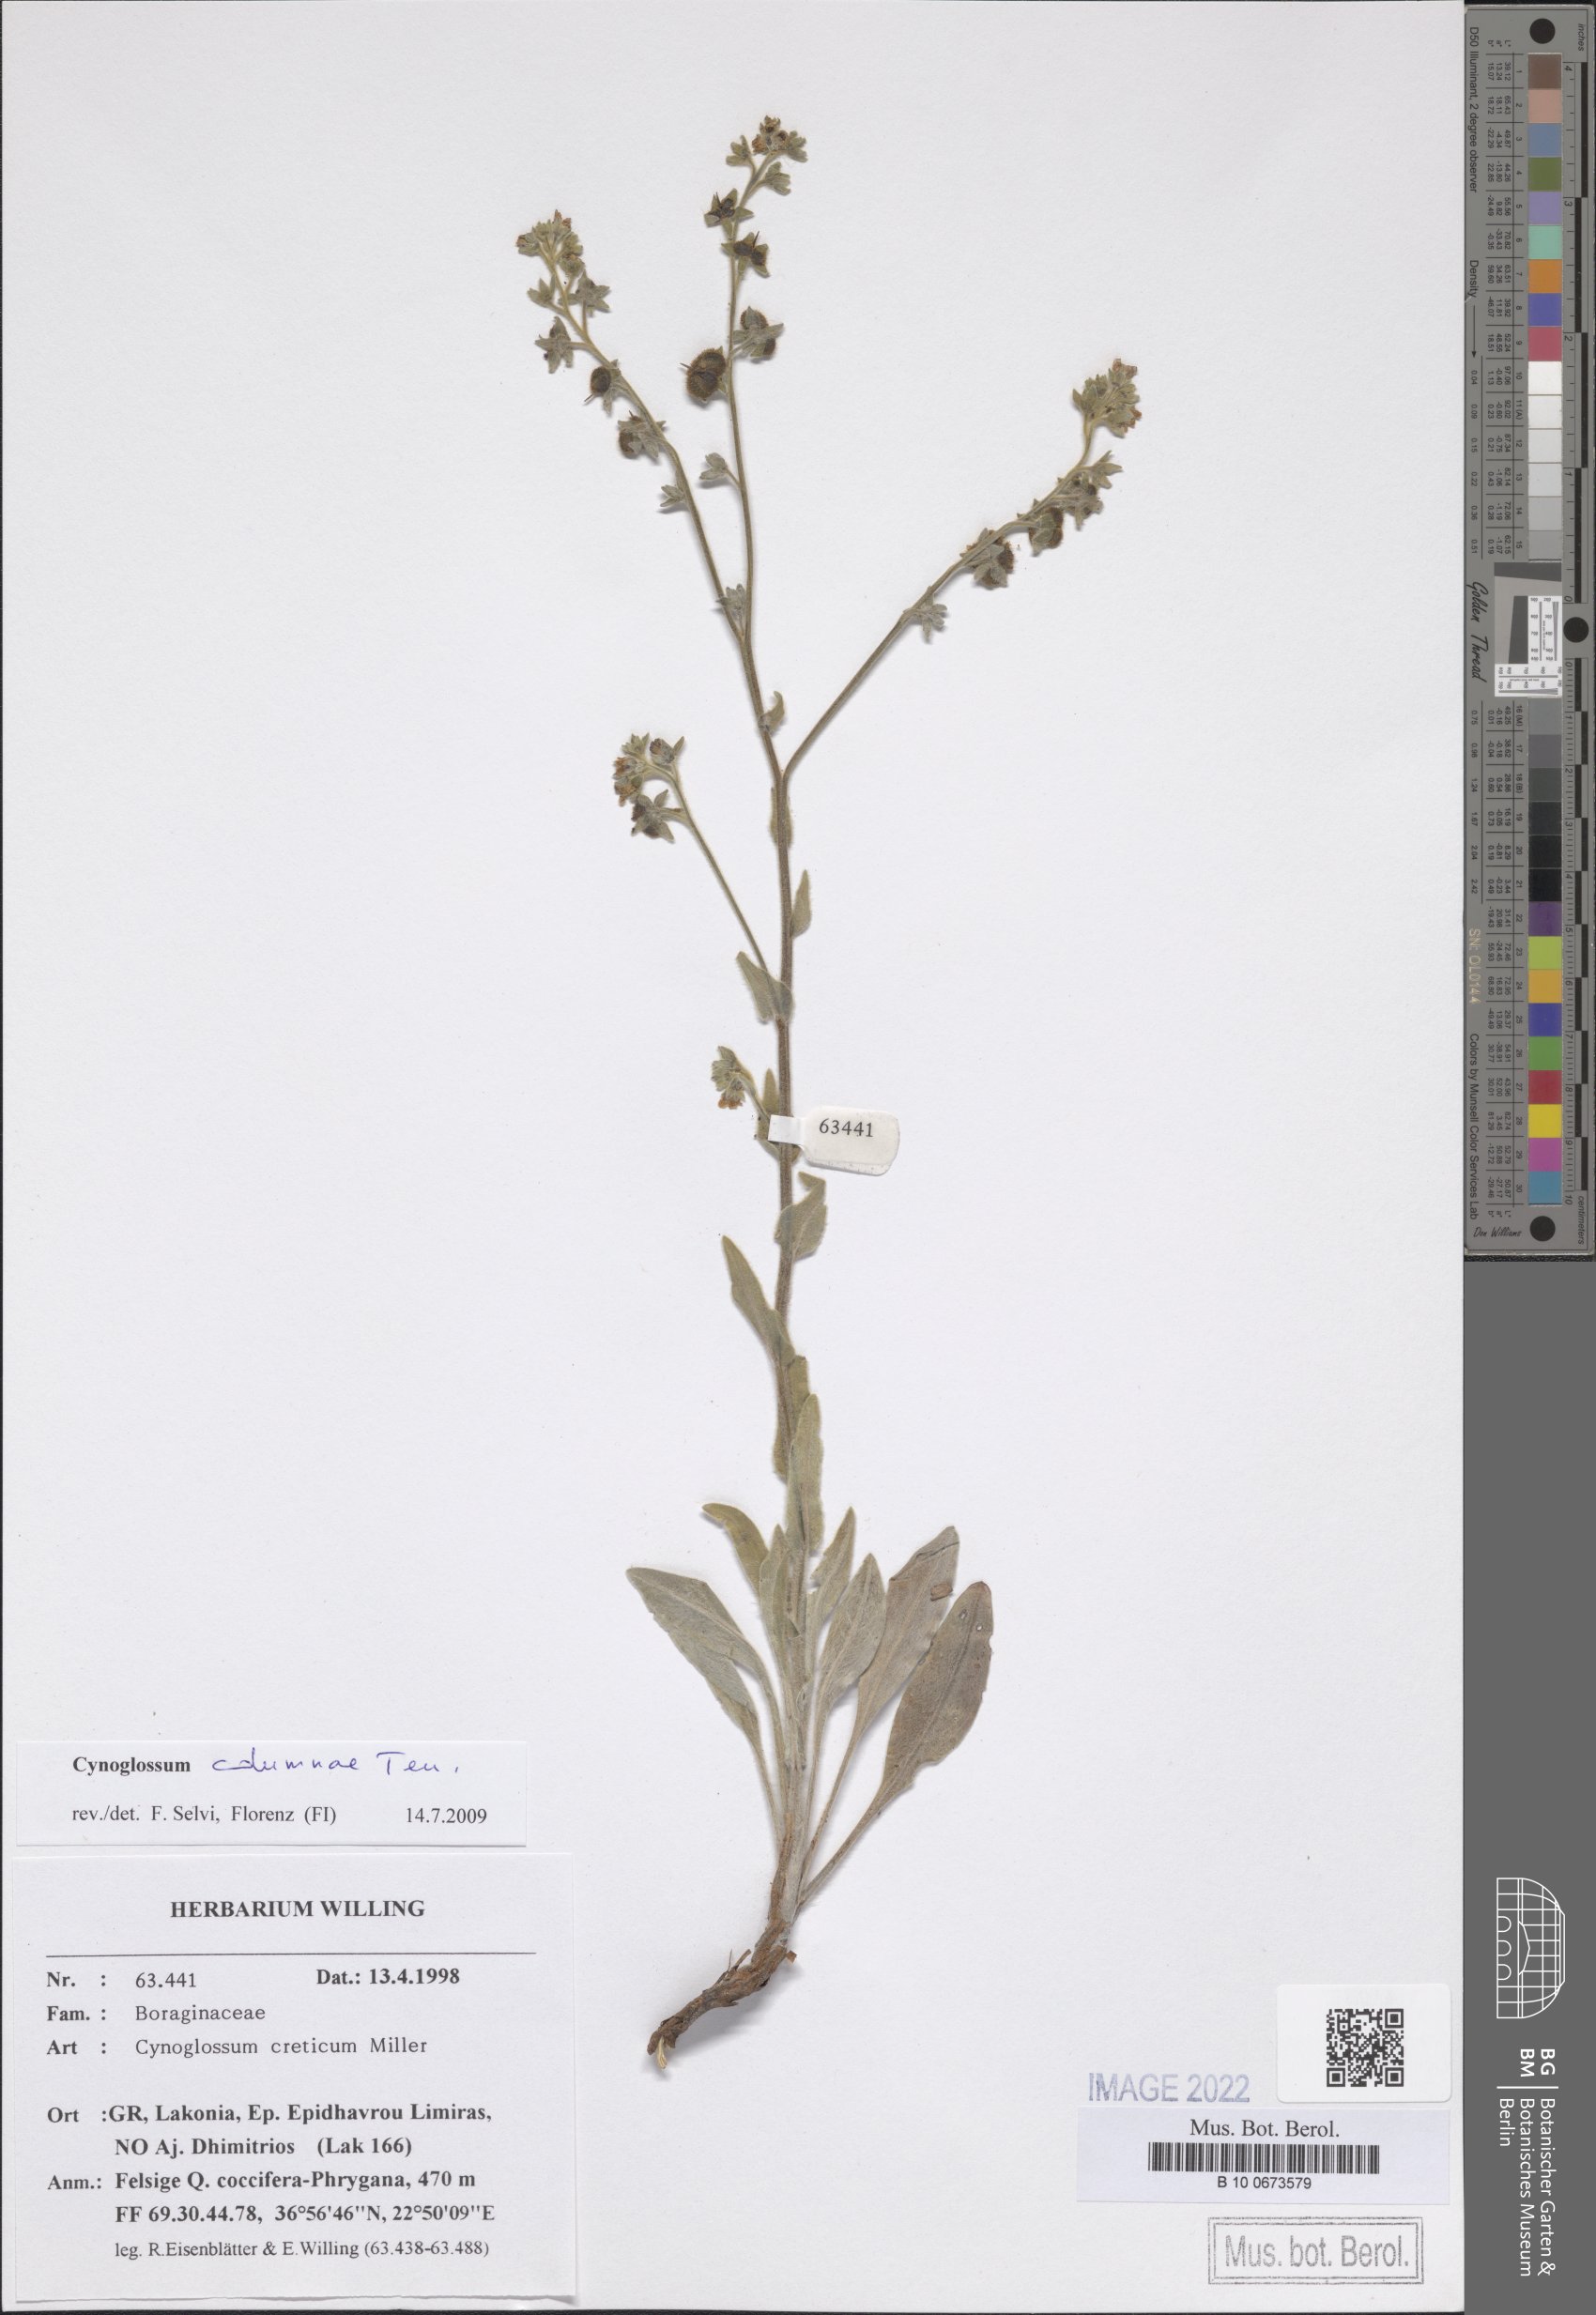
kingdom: Plantae
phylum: Tracheophyta
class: Magnoliopsida
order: Boraginales
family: Boraginaceae
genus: Rindera
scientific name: Rindera columnae
